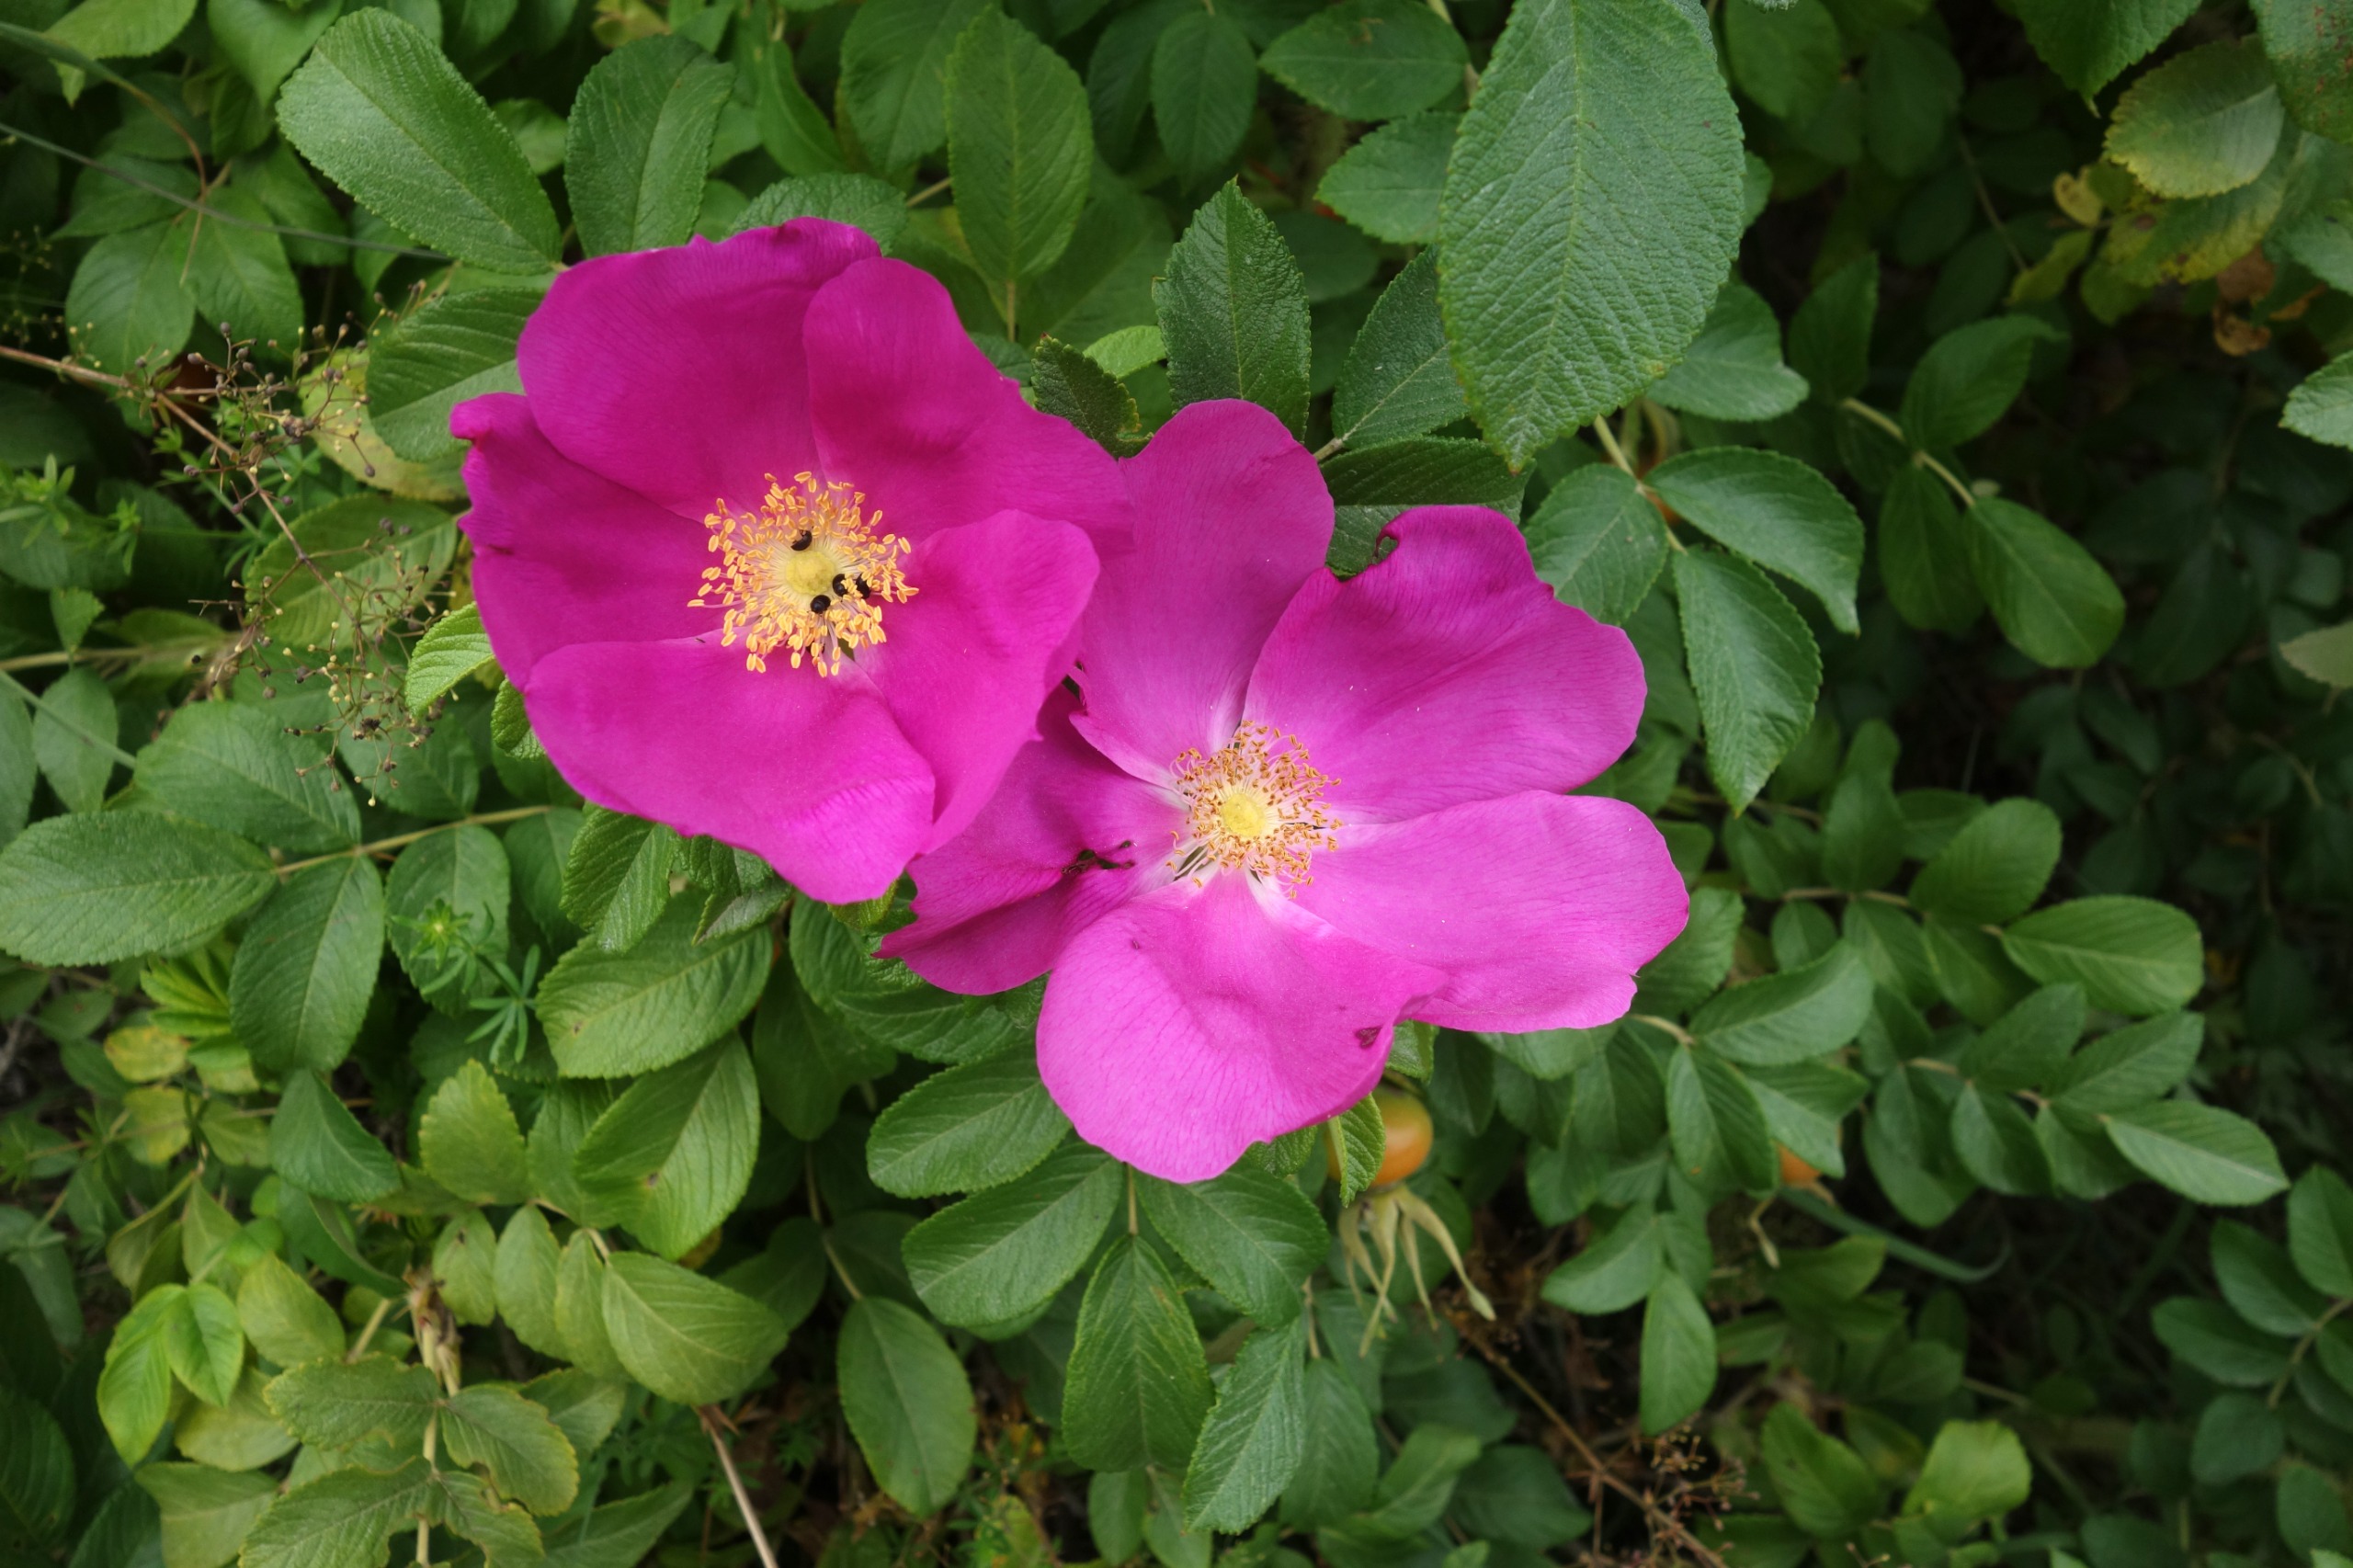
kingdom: Plantae
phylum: Tracheophyta
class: Magnoliopsida
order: Rosales
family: Rosaceae
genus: Rosa
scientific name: Rosa rugosa
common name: Rynket rose
